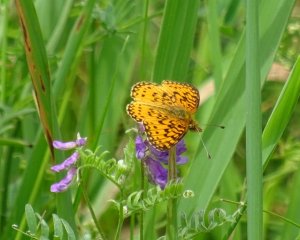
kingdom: Animalia
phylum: Arthropoda
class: Insecta
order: Lepidoptera
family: Nymphalidae
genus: Boloria
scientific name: Boloria selene
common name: Silver-bordered Fritillary
